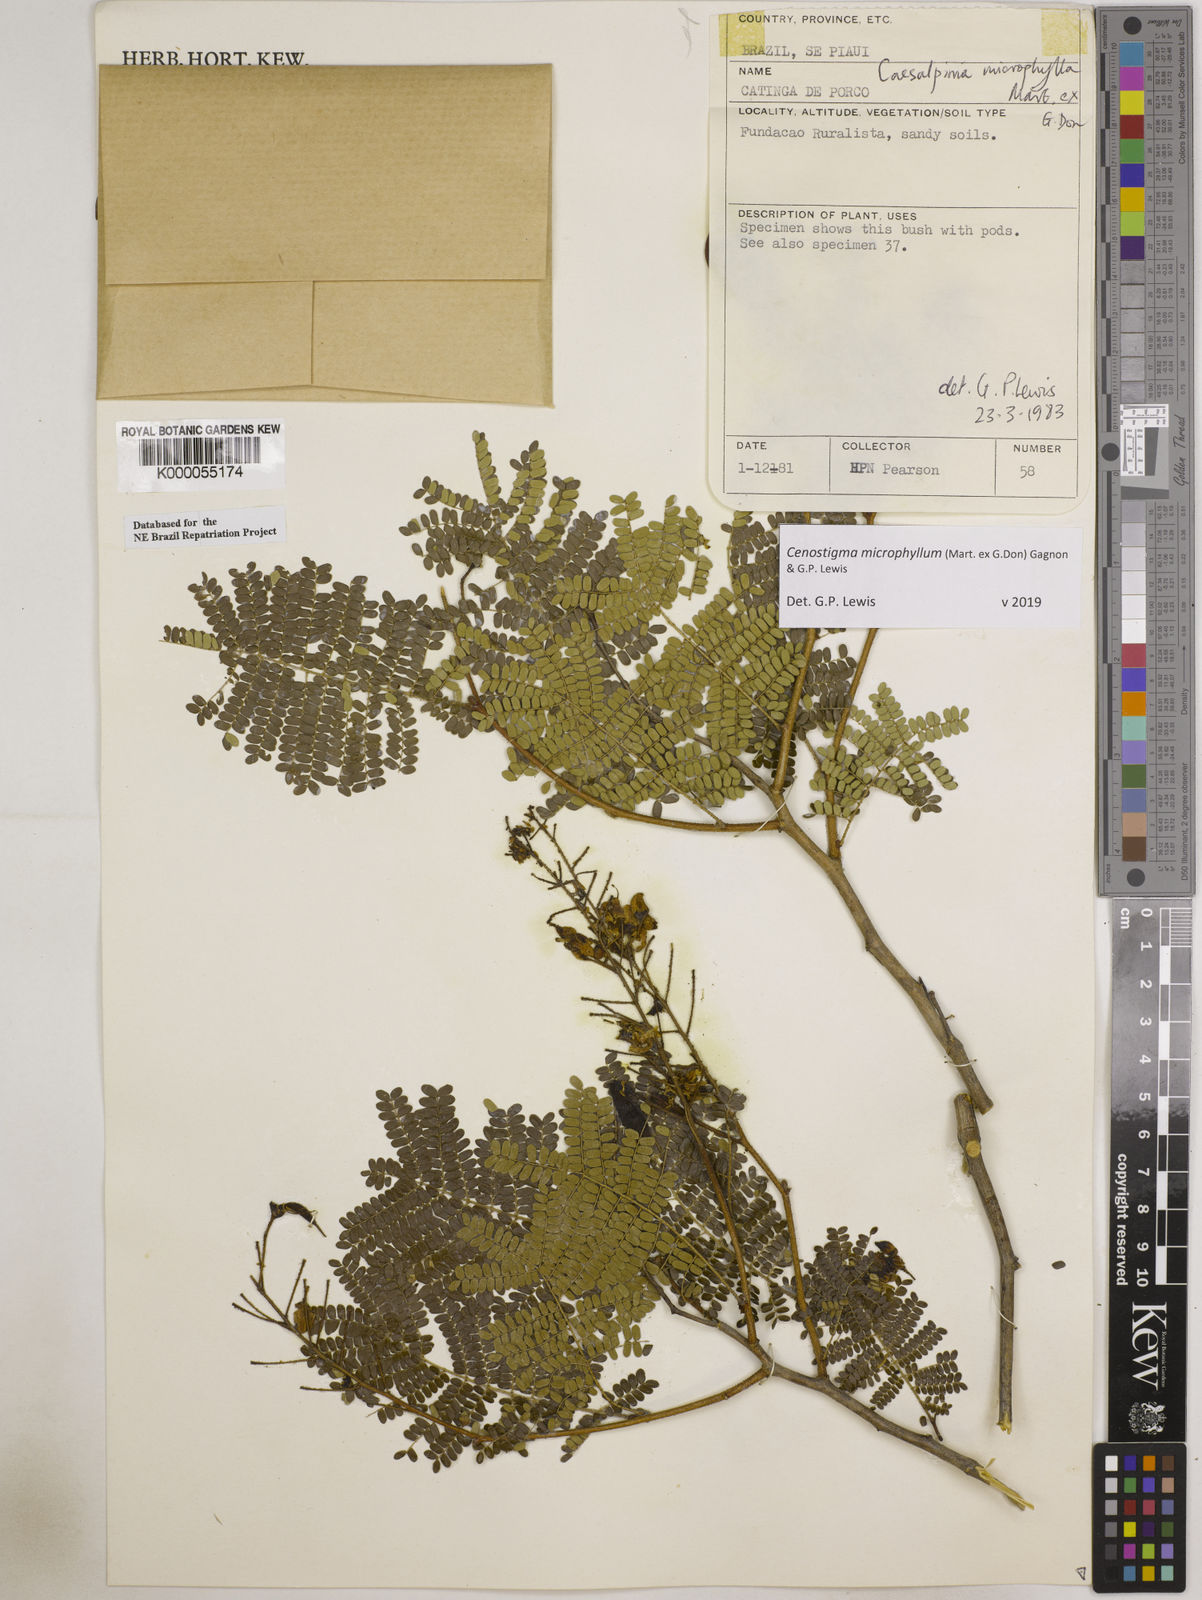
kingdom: Plantae
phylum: Tracheophyta
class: Magnoliopsida
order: Fabales
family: Fabaceae
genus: Cenostigma
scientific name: Cenostigma microphyllum
